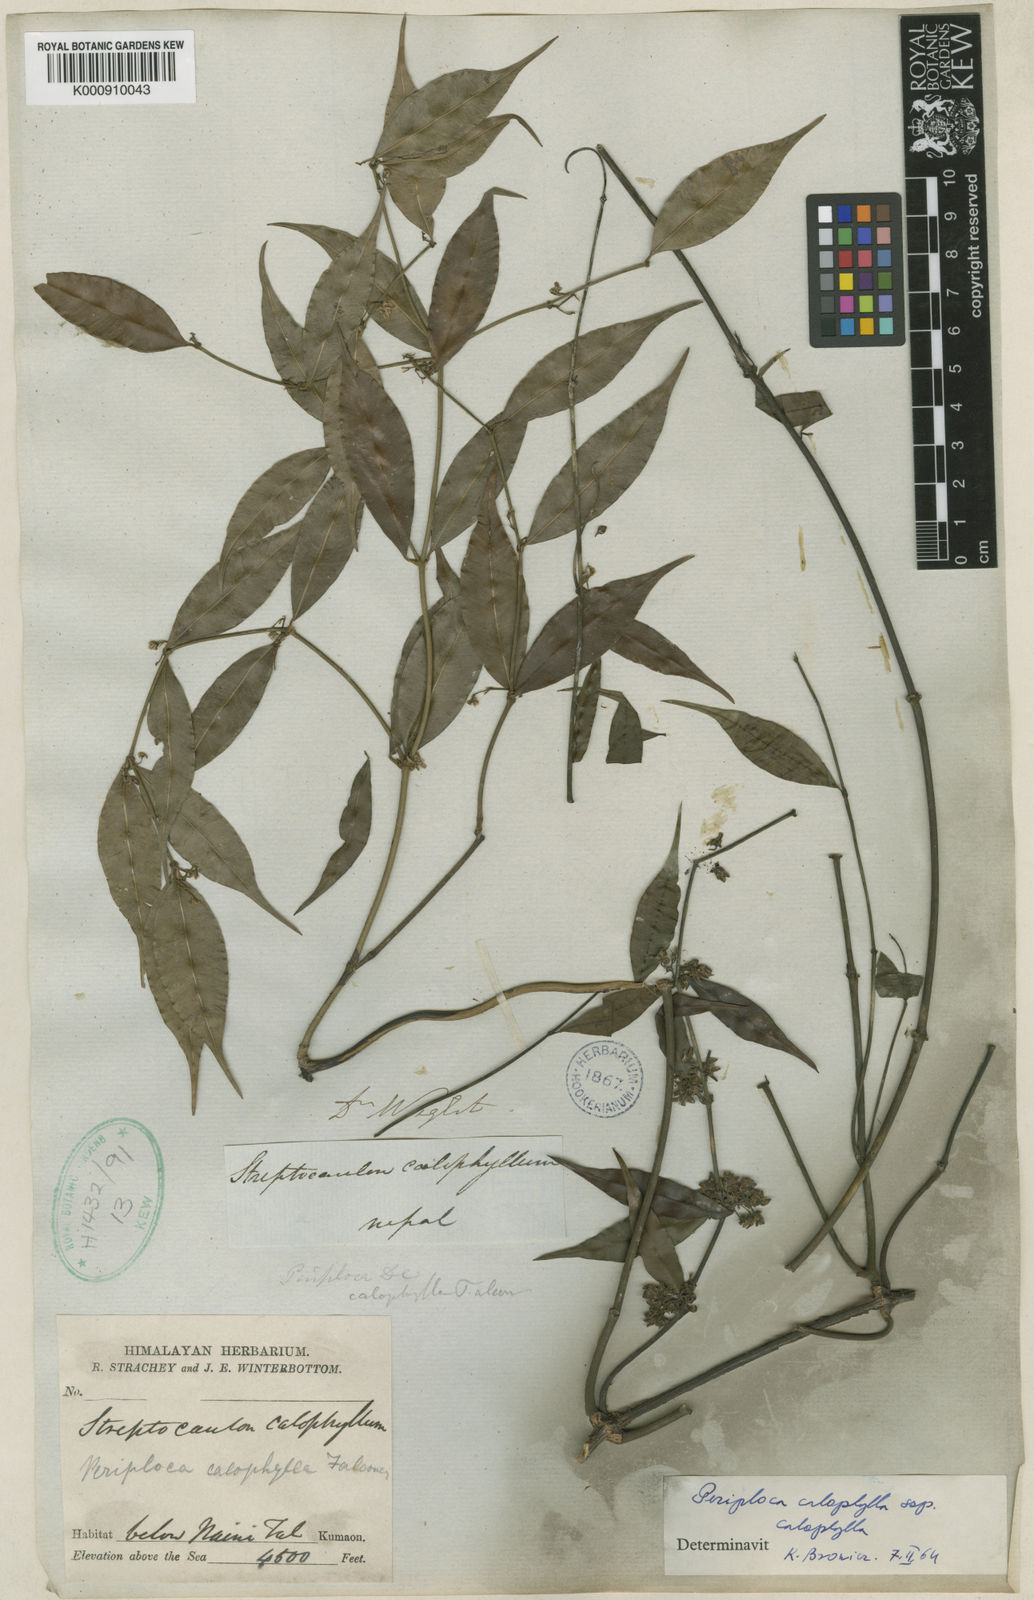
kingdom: Plantae
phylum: Tracheophyta
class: Magnoliopsida
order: Gentianales
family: Apocynaceae
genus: Periploca
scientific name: Periploca calophylla
